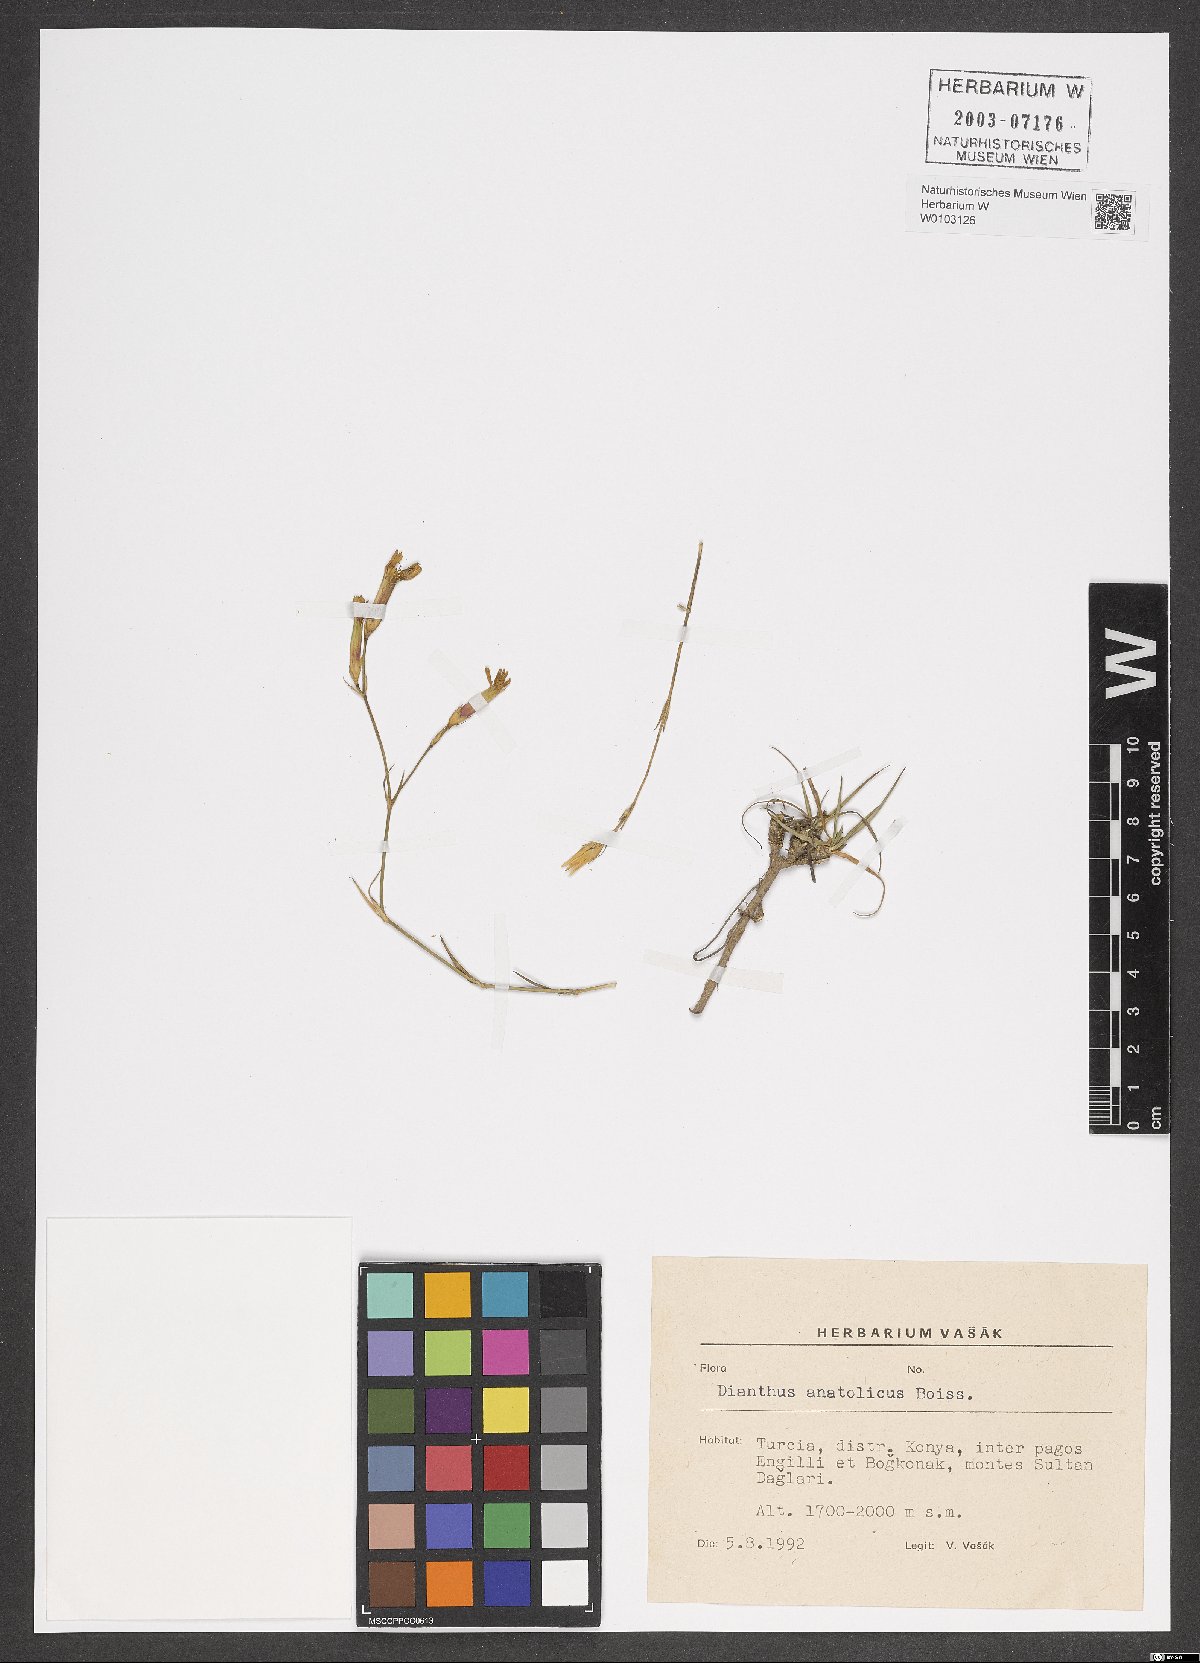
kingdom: Plantae
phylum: Tracheophyta
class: Magnoliopsida
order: Caryophyllales
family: Caryophyllaceae
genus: Dianthus
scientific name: Dianthus anatolicus
